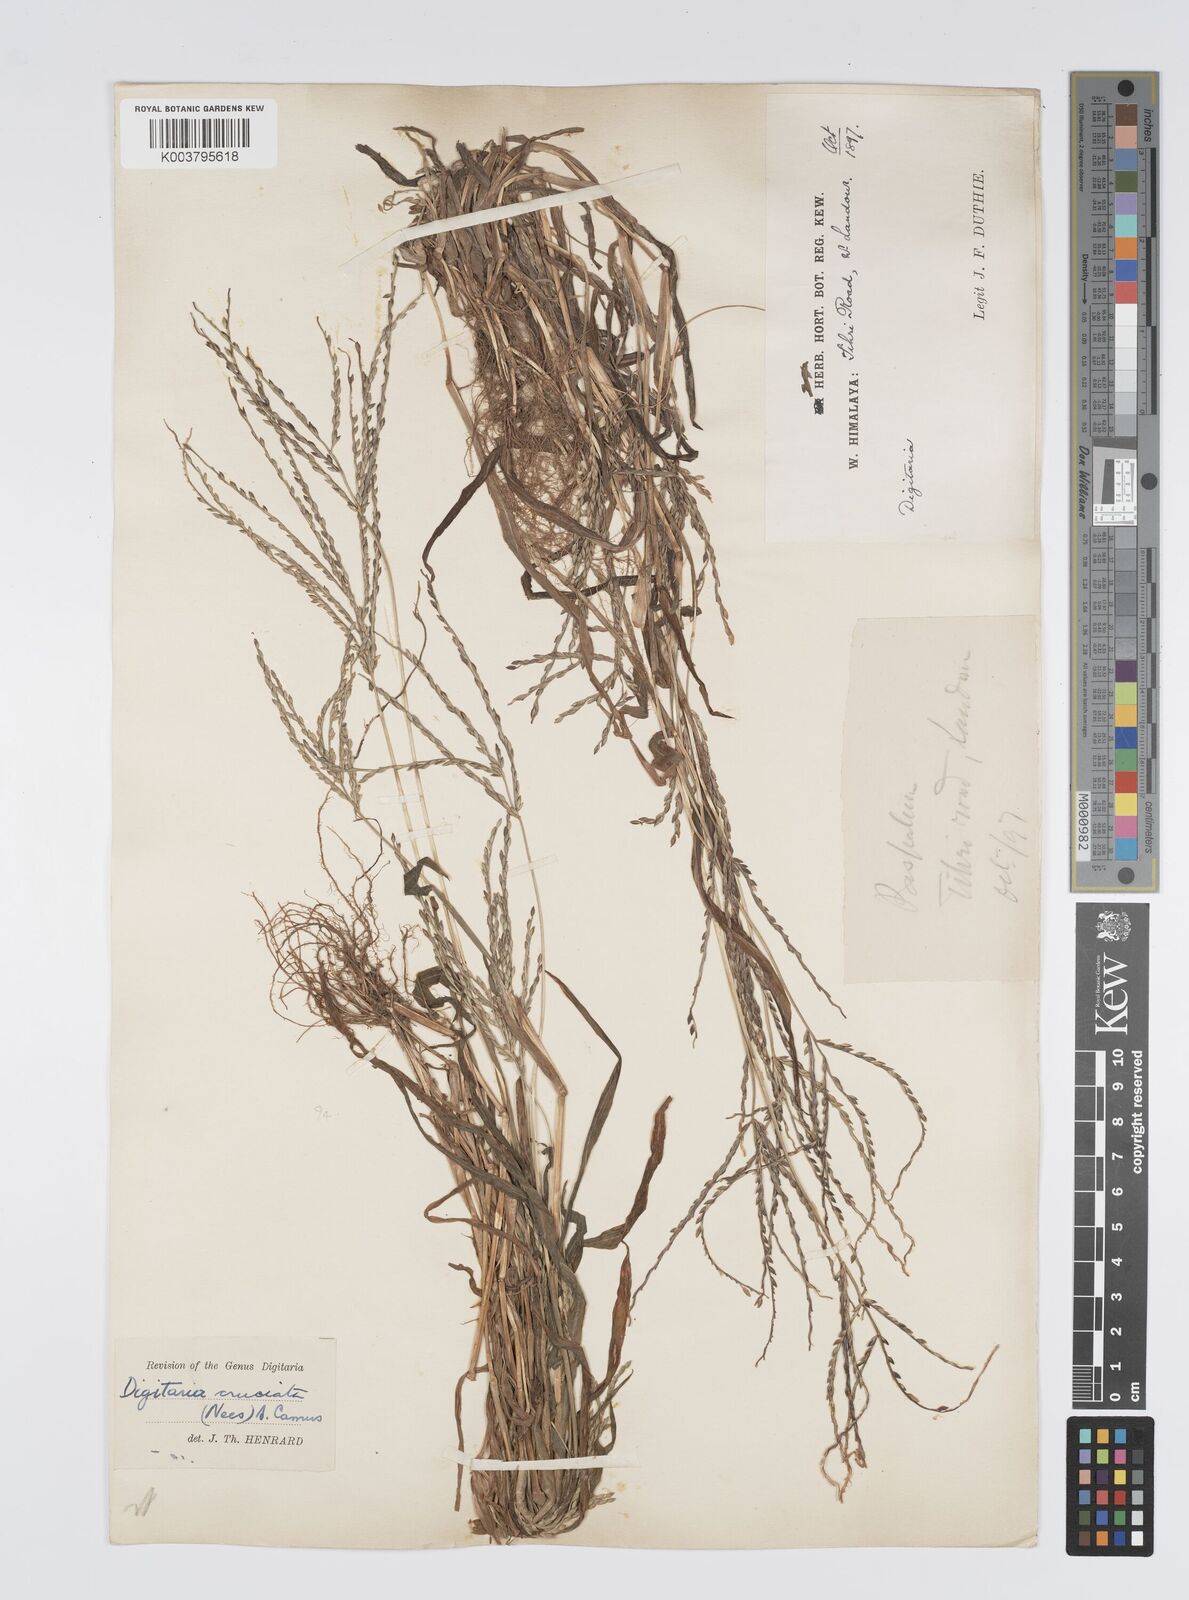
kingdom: Plantae
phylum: Tracheophyta
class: Liliopsida
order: Poales
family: Poaceae
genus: Digitaria
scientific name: Digitaria sanguinalis
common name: Hairy crabgrass
